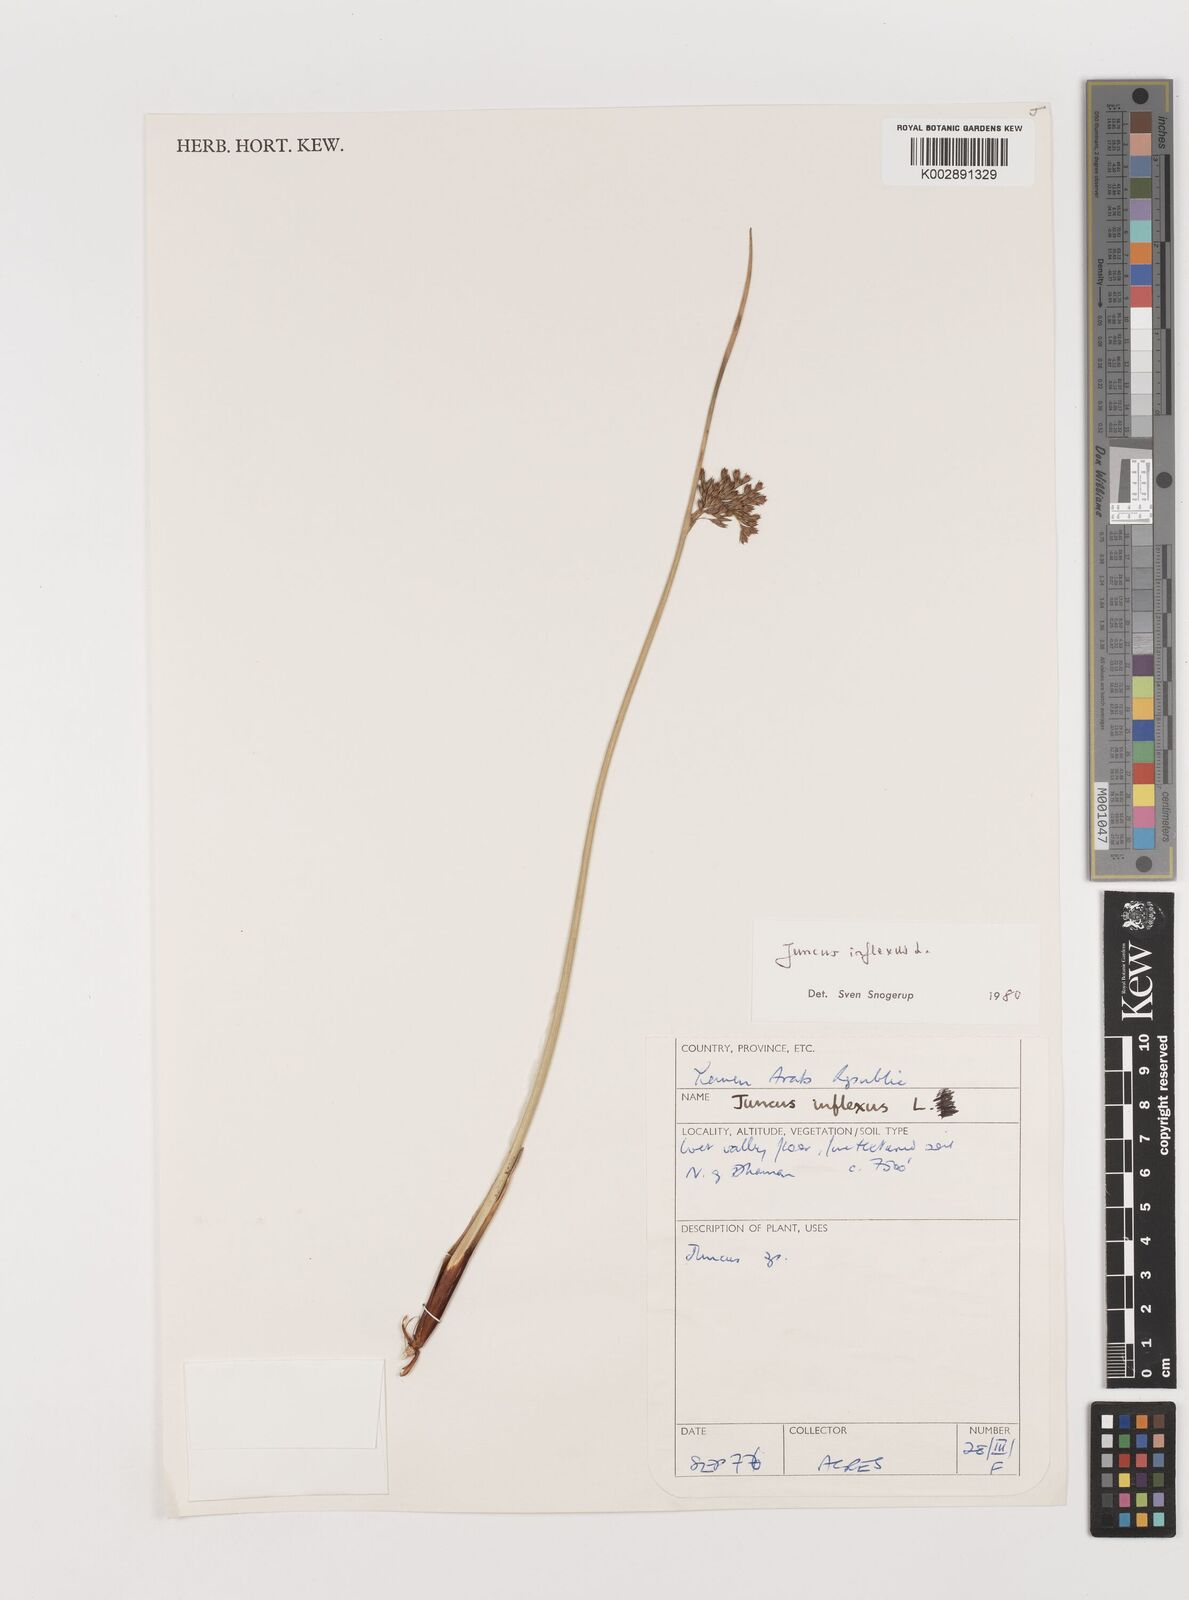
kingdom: Plantae
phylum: Tracheophyta
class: Liliopsida
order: Poales
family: Juncaceae
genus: Juncus
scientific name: Juncus inflexus
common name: Hard rush
